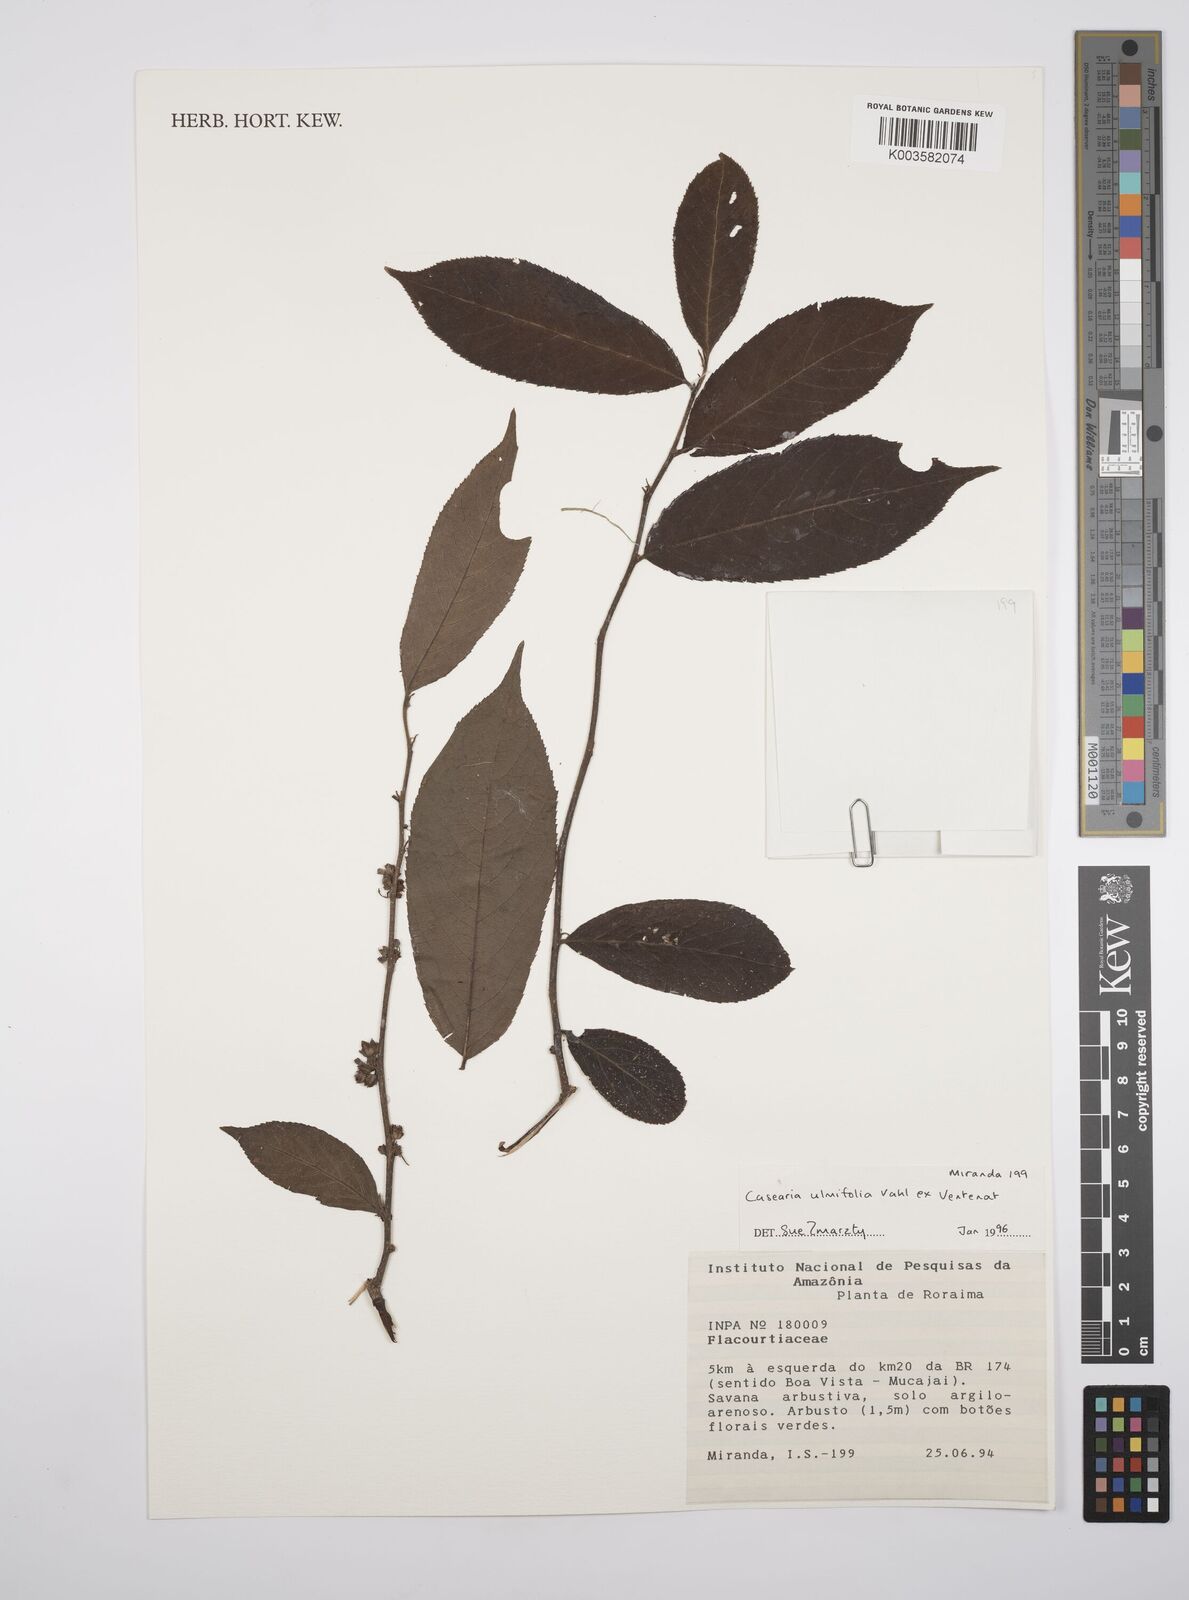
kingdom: Plantae
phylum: Tracheophyta
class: Magnoliopsida
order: Malpighiales
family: Salicaceae
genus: Casearia
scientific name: Casearia ulmifolia
